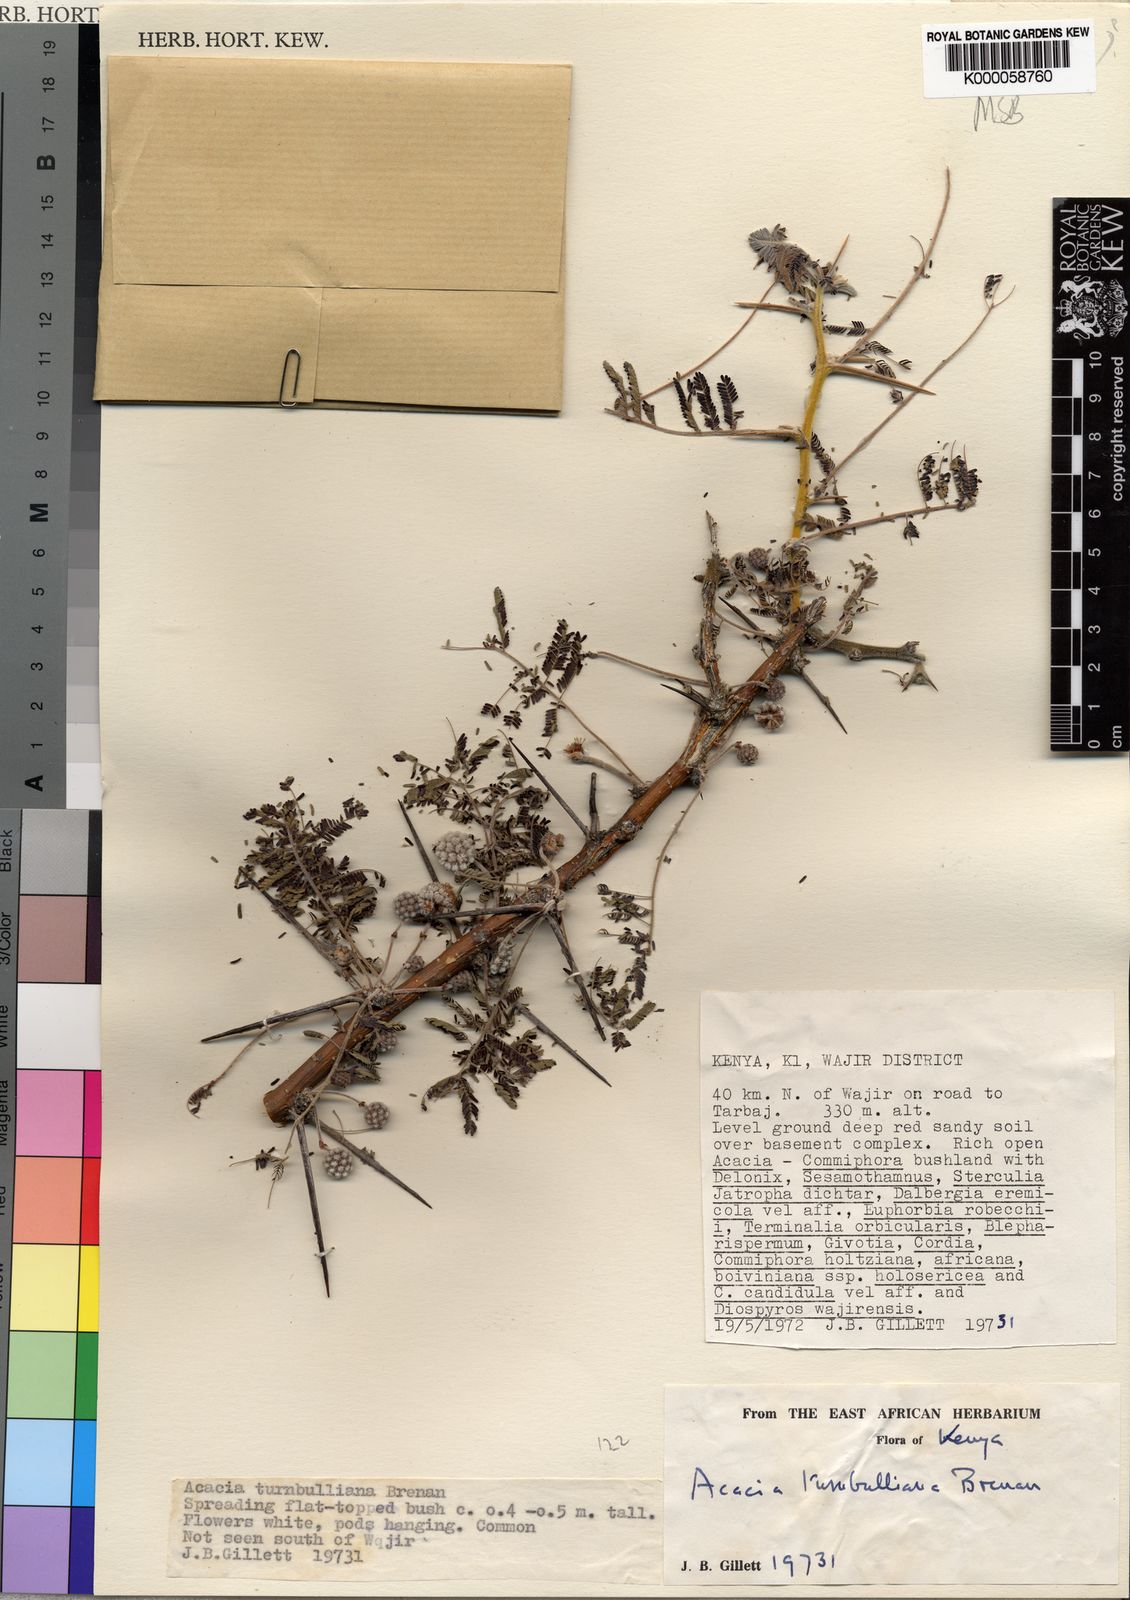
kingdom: Plantae
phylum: Tracheophyta
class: Magnoliopsida
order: Fabales
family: Fabaceae
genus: Vachellia
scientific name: Vachellia edgeworthii
